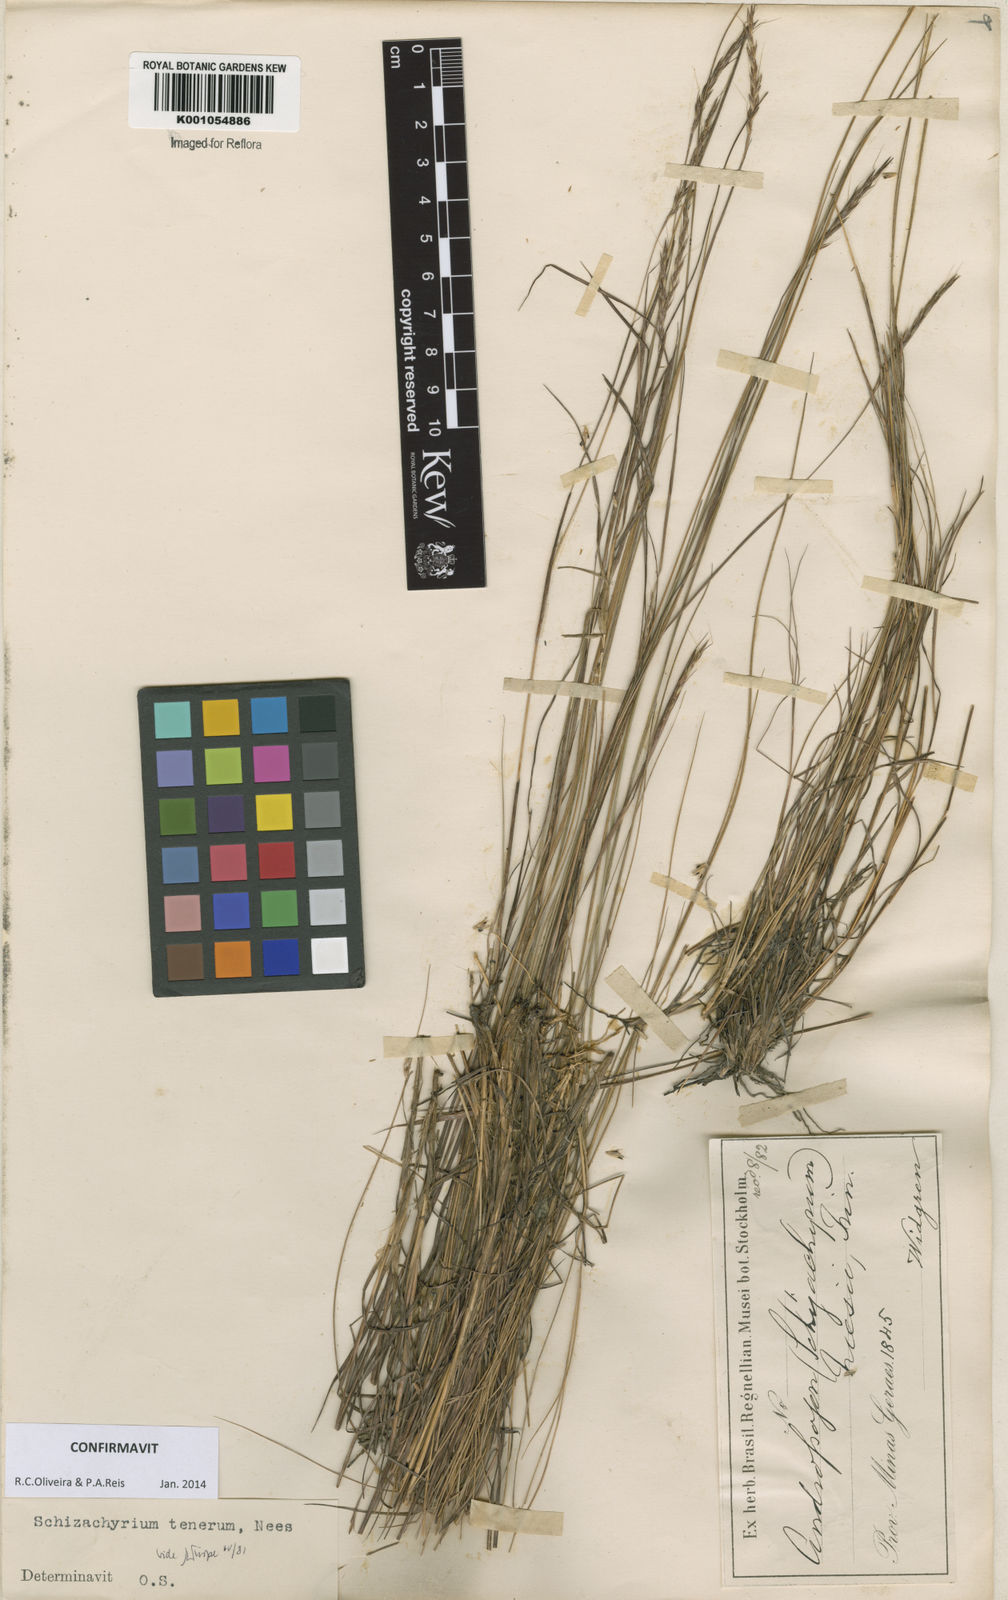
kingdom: Plantae
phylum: Tracheophyta
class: Liliopsida
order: Poales
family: Poaceae
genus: Andropogon
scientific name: Andropogon tener
